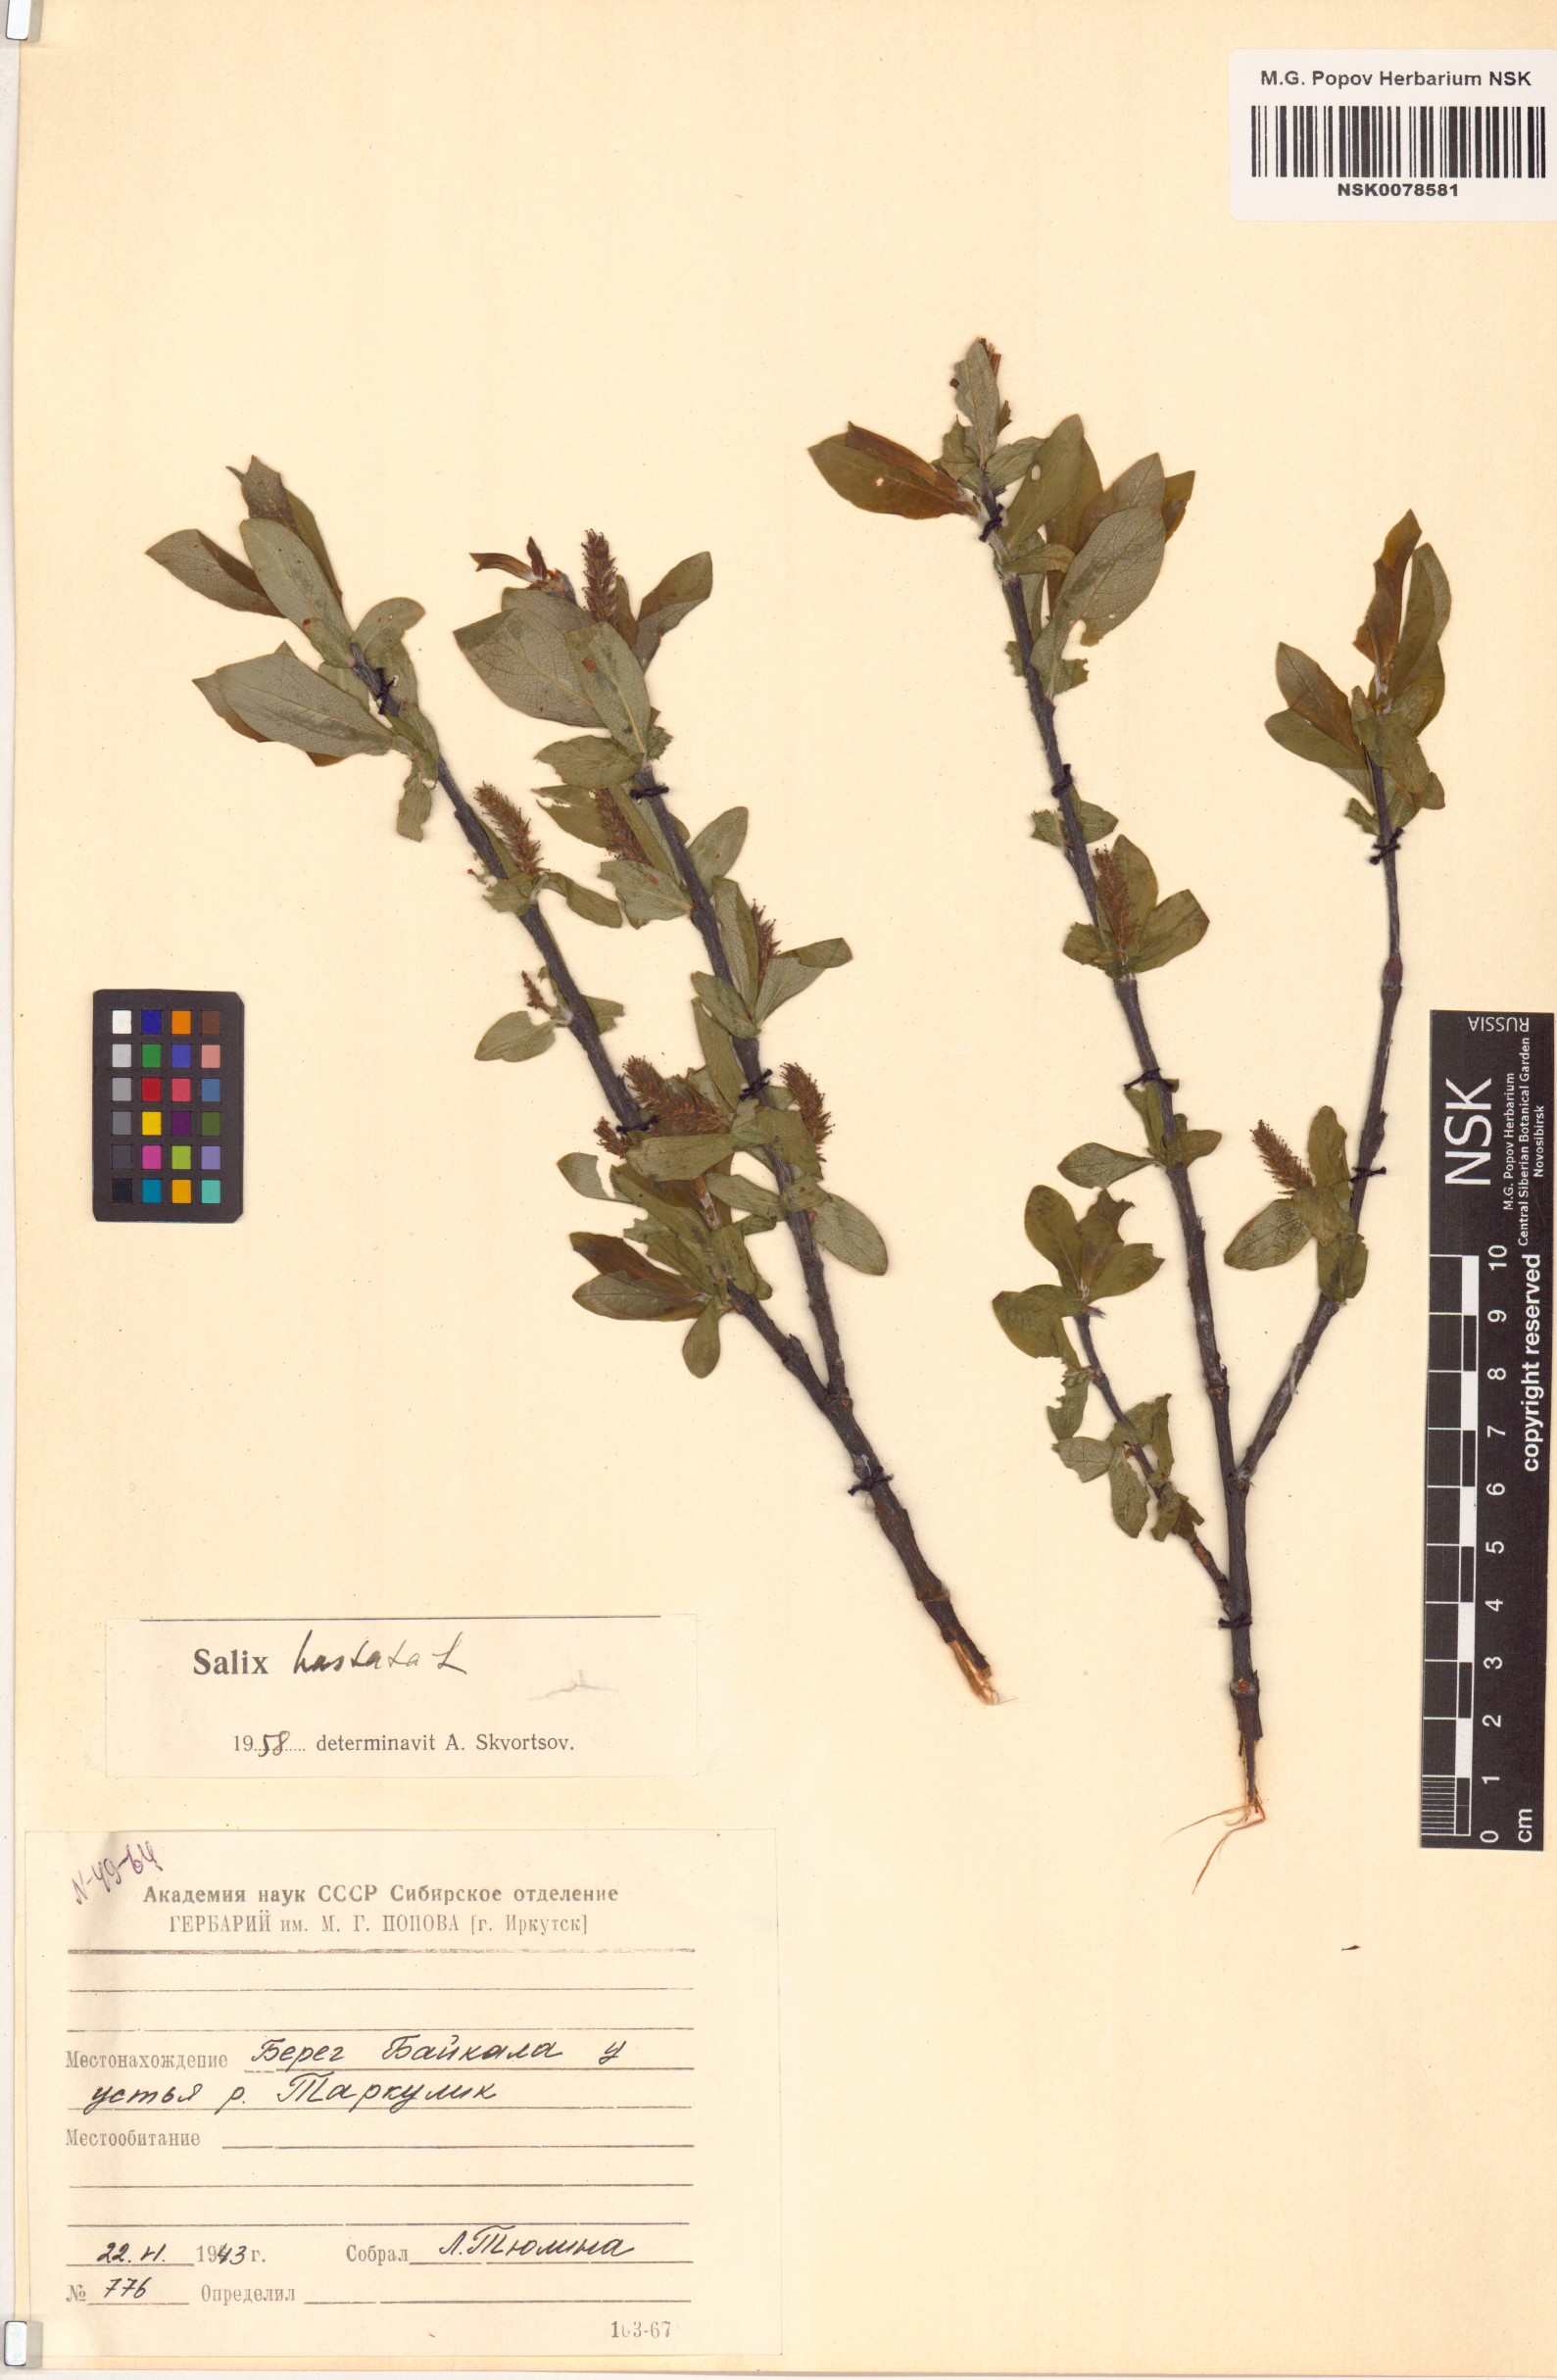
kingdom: Plantae
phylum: Tracheophyta
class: Magnoliopsida
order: Malpighiales
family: Salicaceae
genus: Salix
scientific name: Salix hastata
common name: Halberd willow
